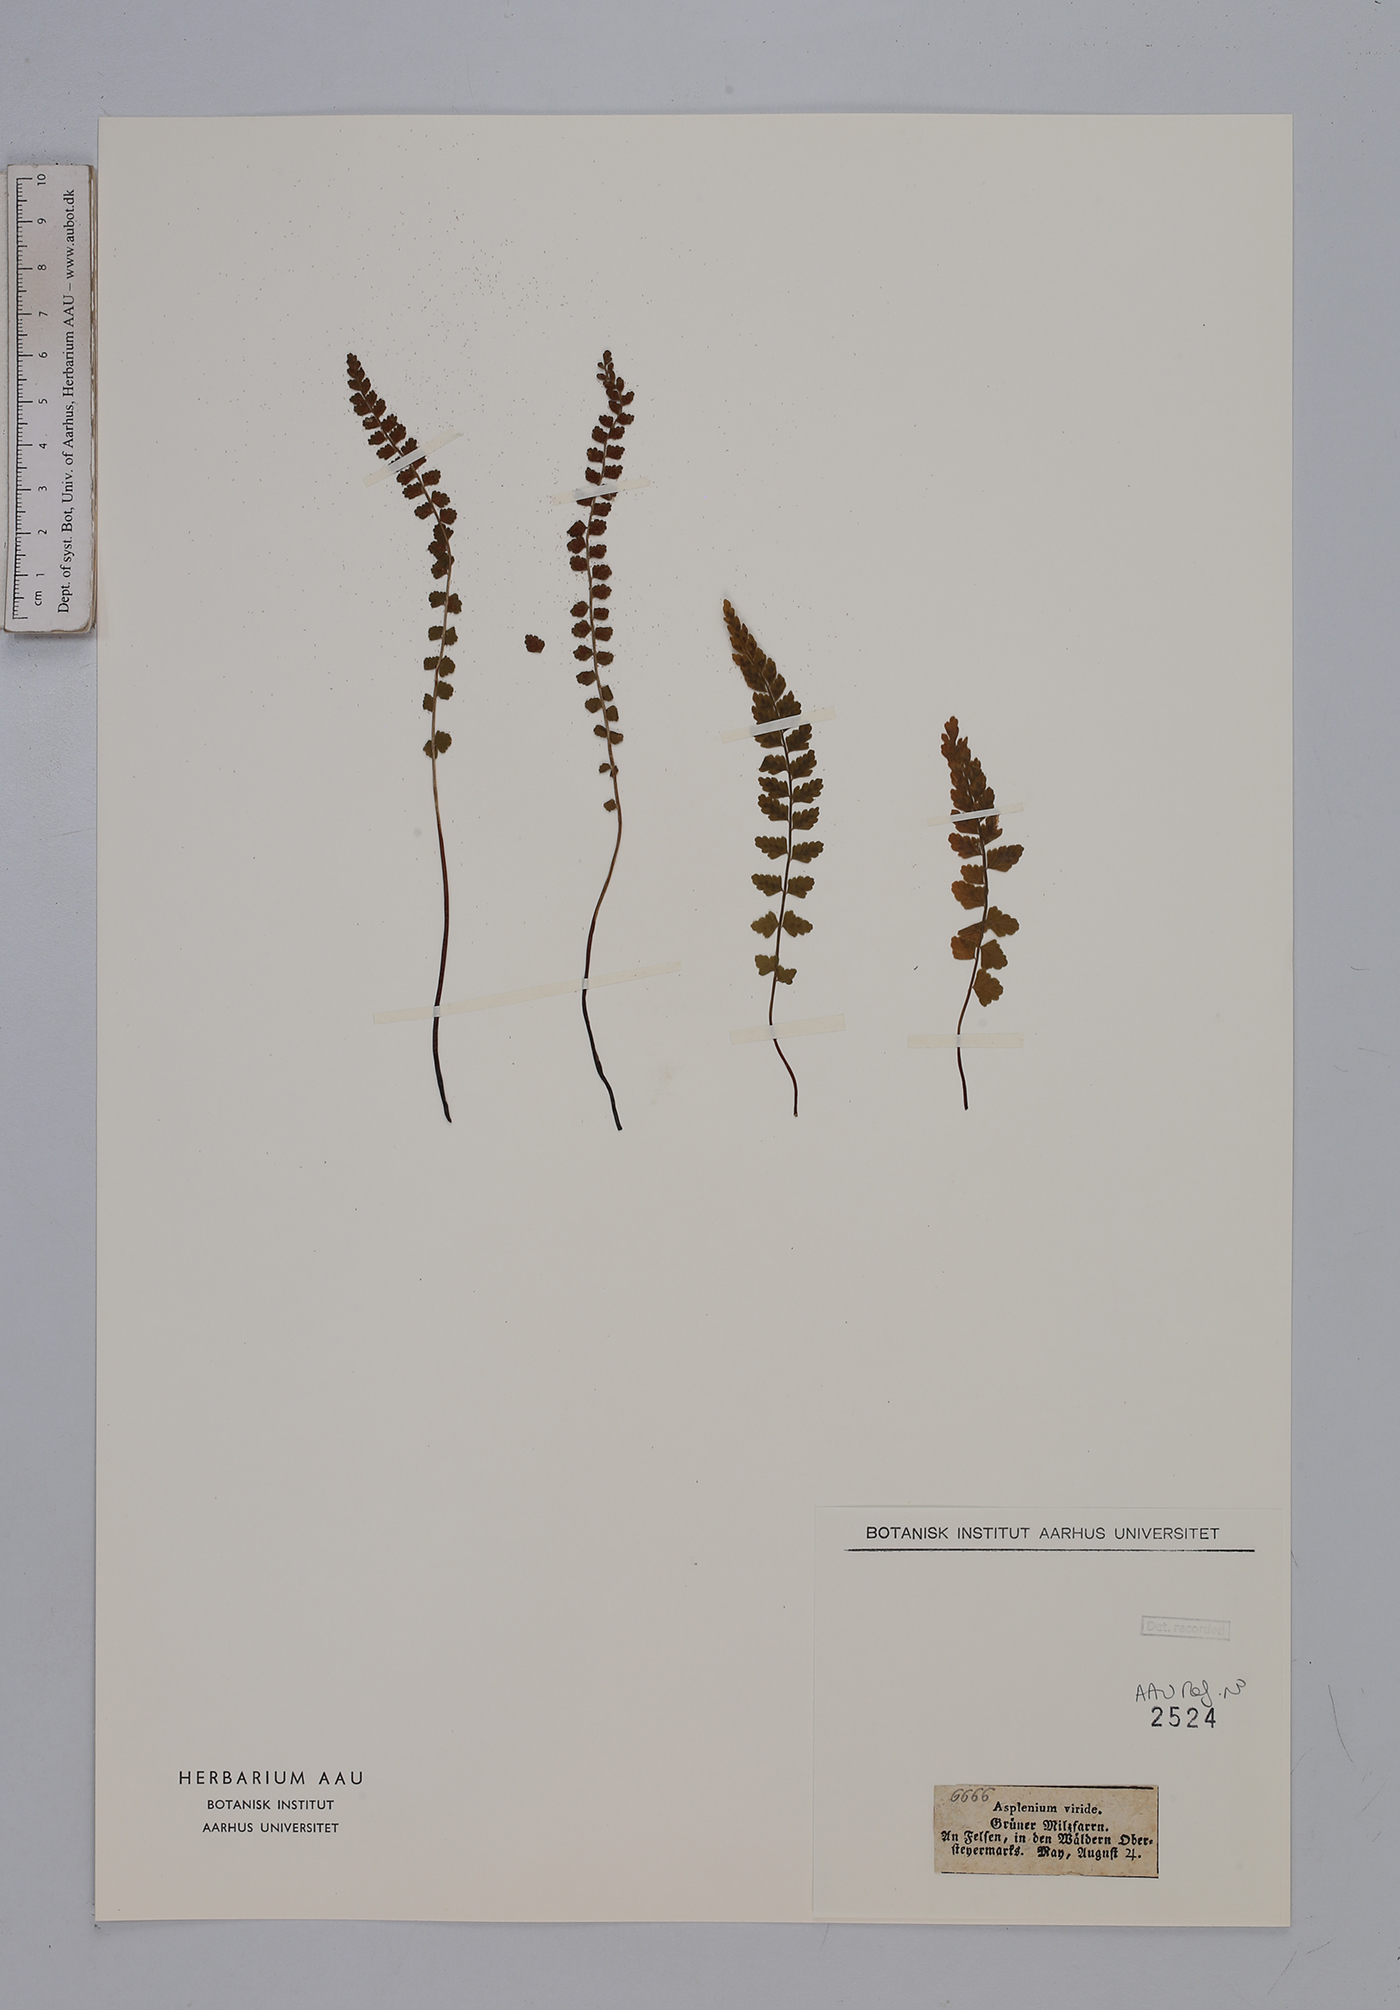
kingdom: Plantae
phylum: Tracheophyta
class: Polypodiopsida
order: Polypodiales
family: Aspleniaceae
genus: Asplenium
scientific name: Asplenium viride
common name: Green spleenwort
